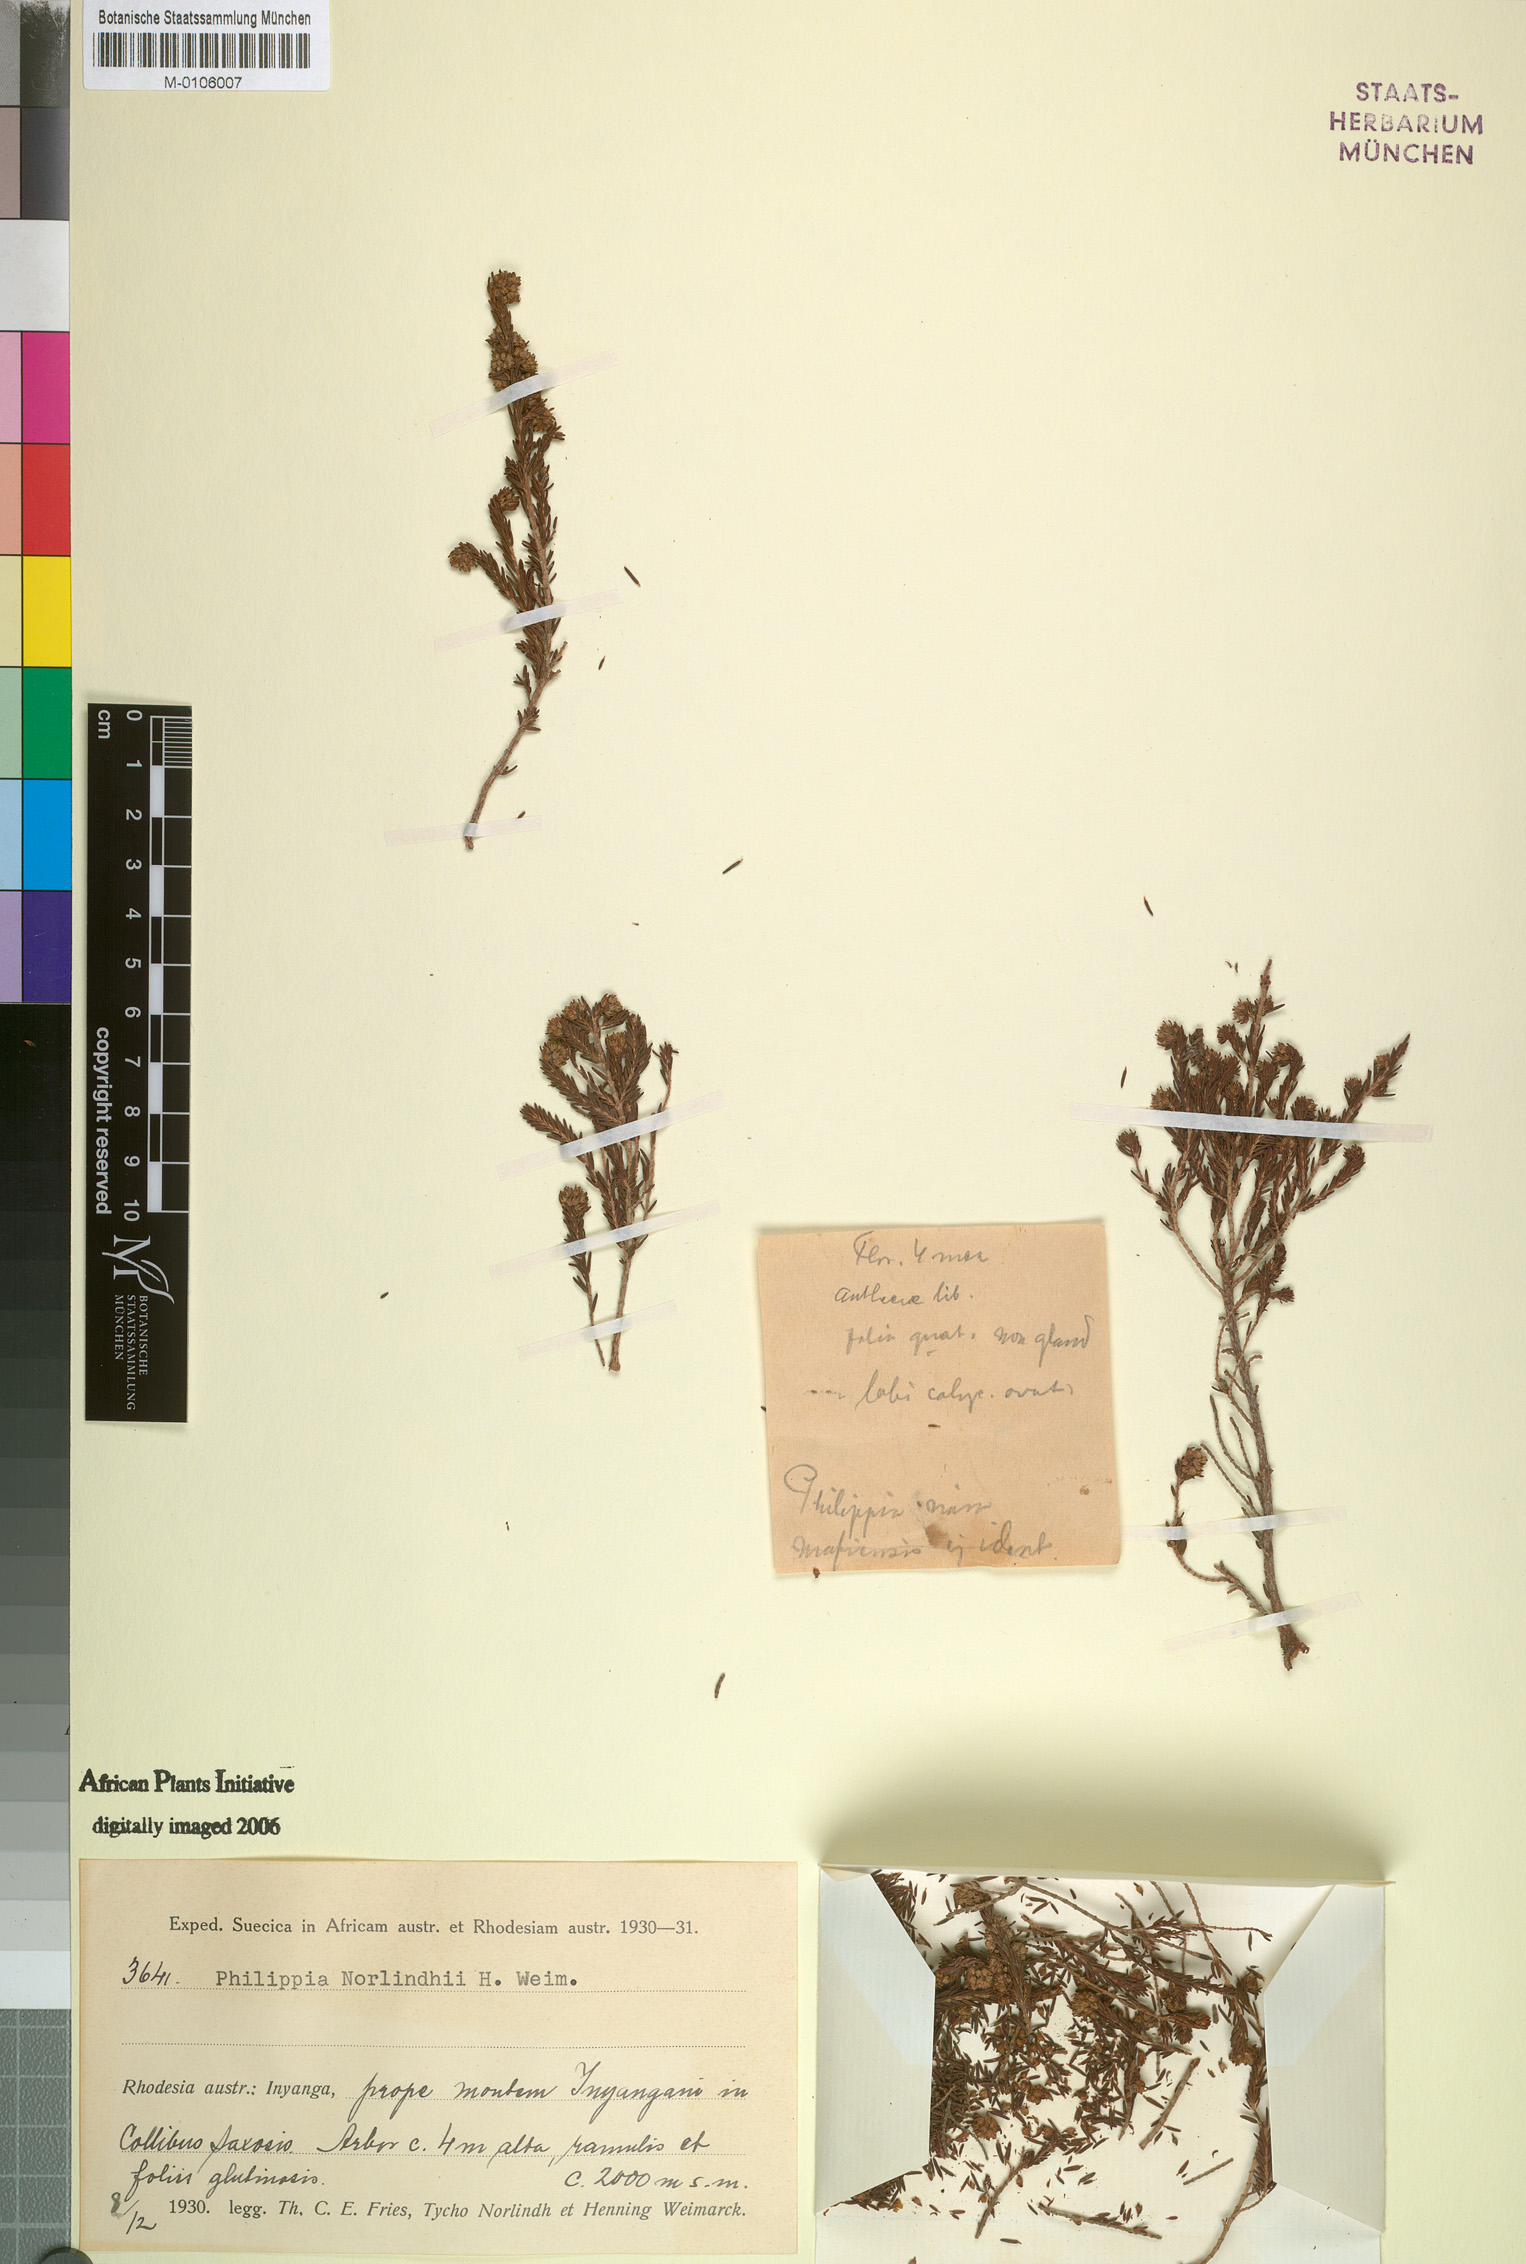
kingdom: Plantae
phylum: Tracheophyta
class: Magnoliopsida
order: Ericales
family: Ericaceae
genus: Erica
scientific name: Erica hexandra
